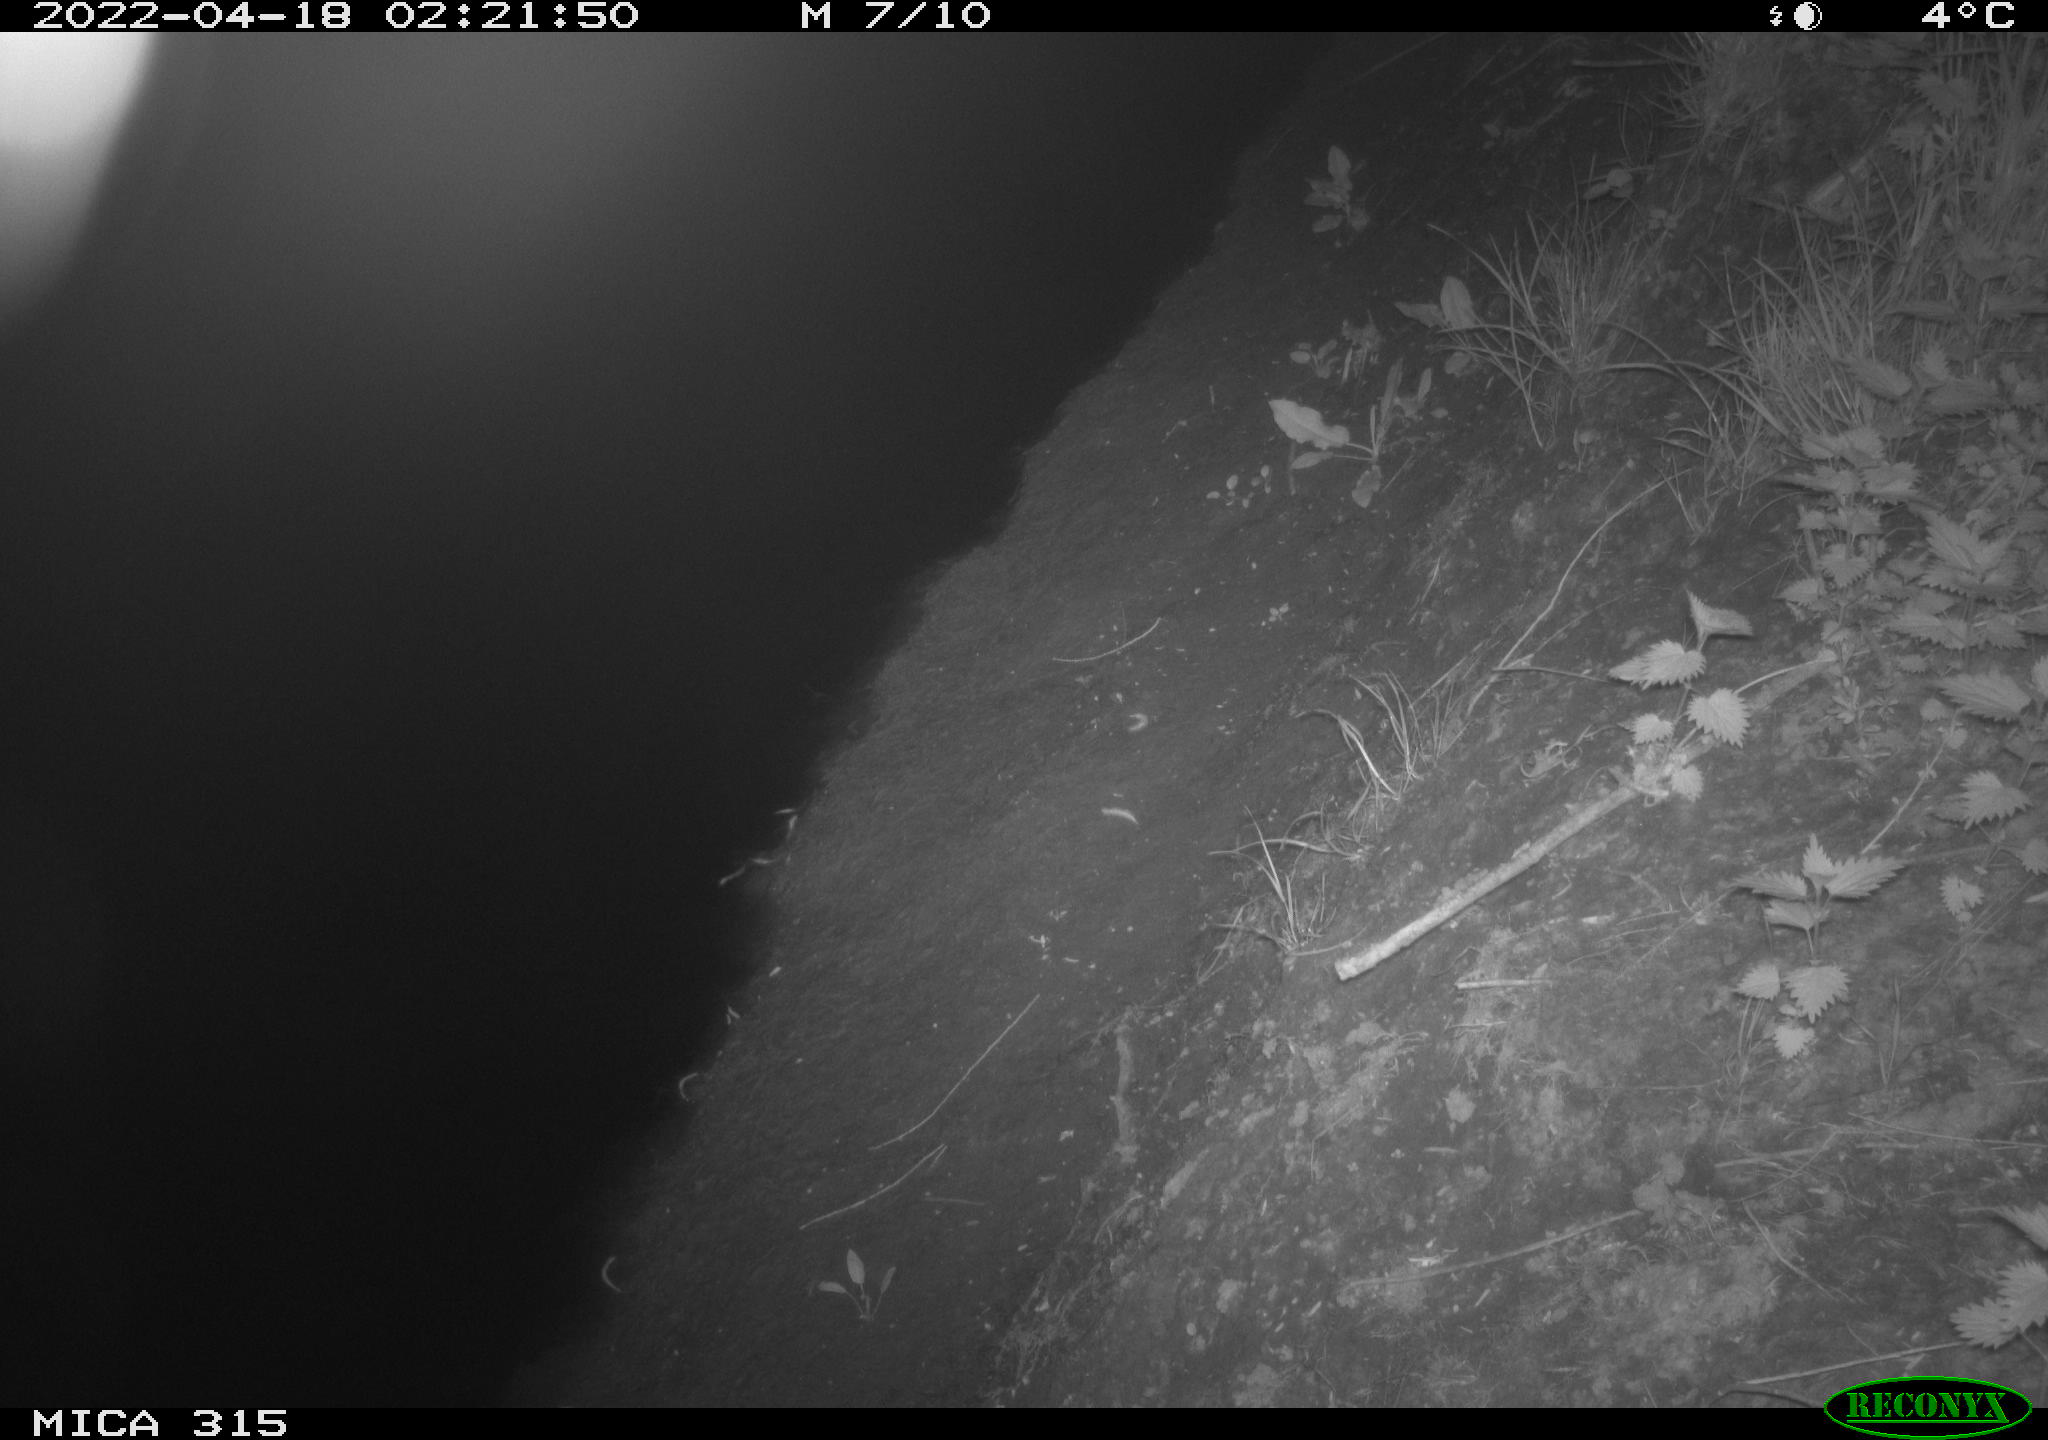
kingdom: Animalia
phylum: Chordata
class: Aves
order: Anseriformes
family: Anatidae
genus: Anas
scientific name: Anas platyrhynchos
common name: Mallard
